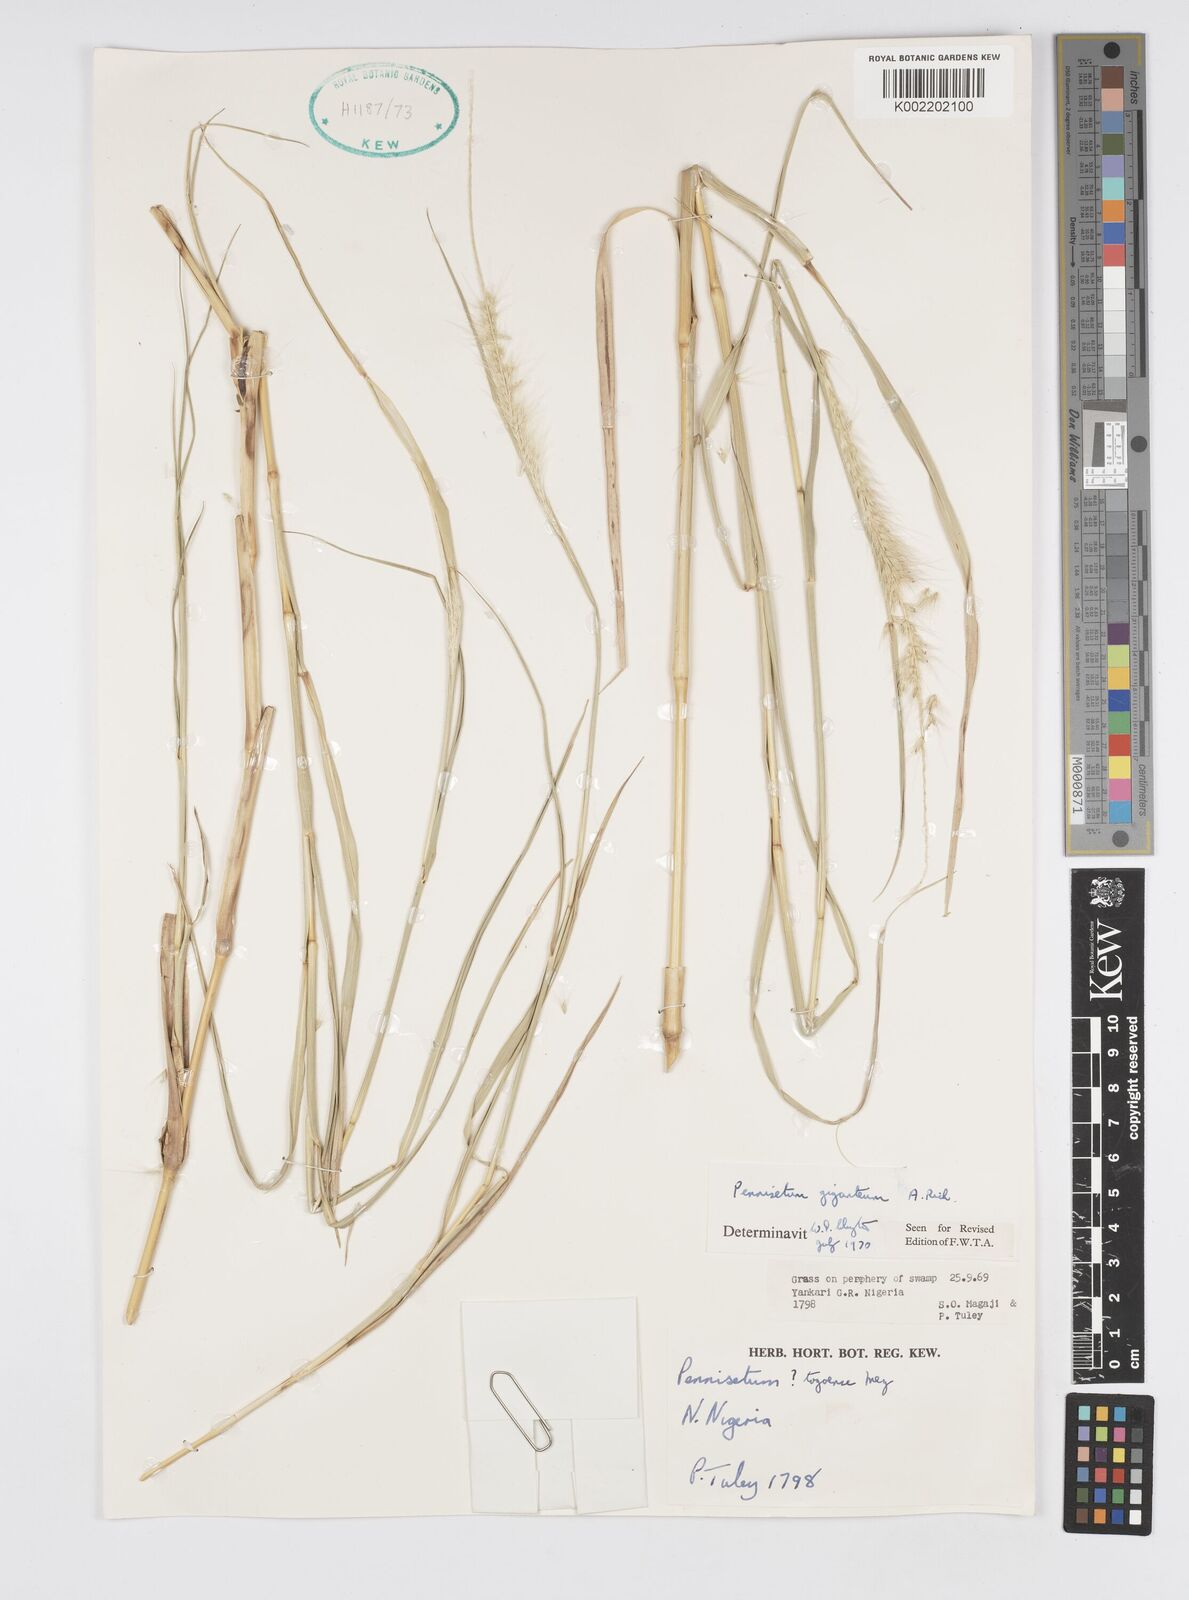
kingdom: Plantae
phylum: Tracheophyta
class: Liliopsida
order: Poales
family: Poaceae
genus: Cenchrus
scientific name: Cenchrus caudatus
